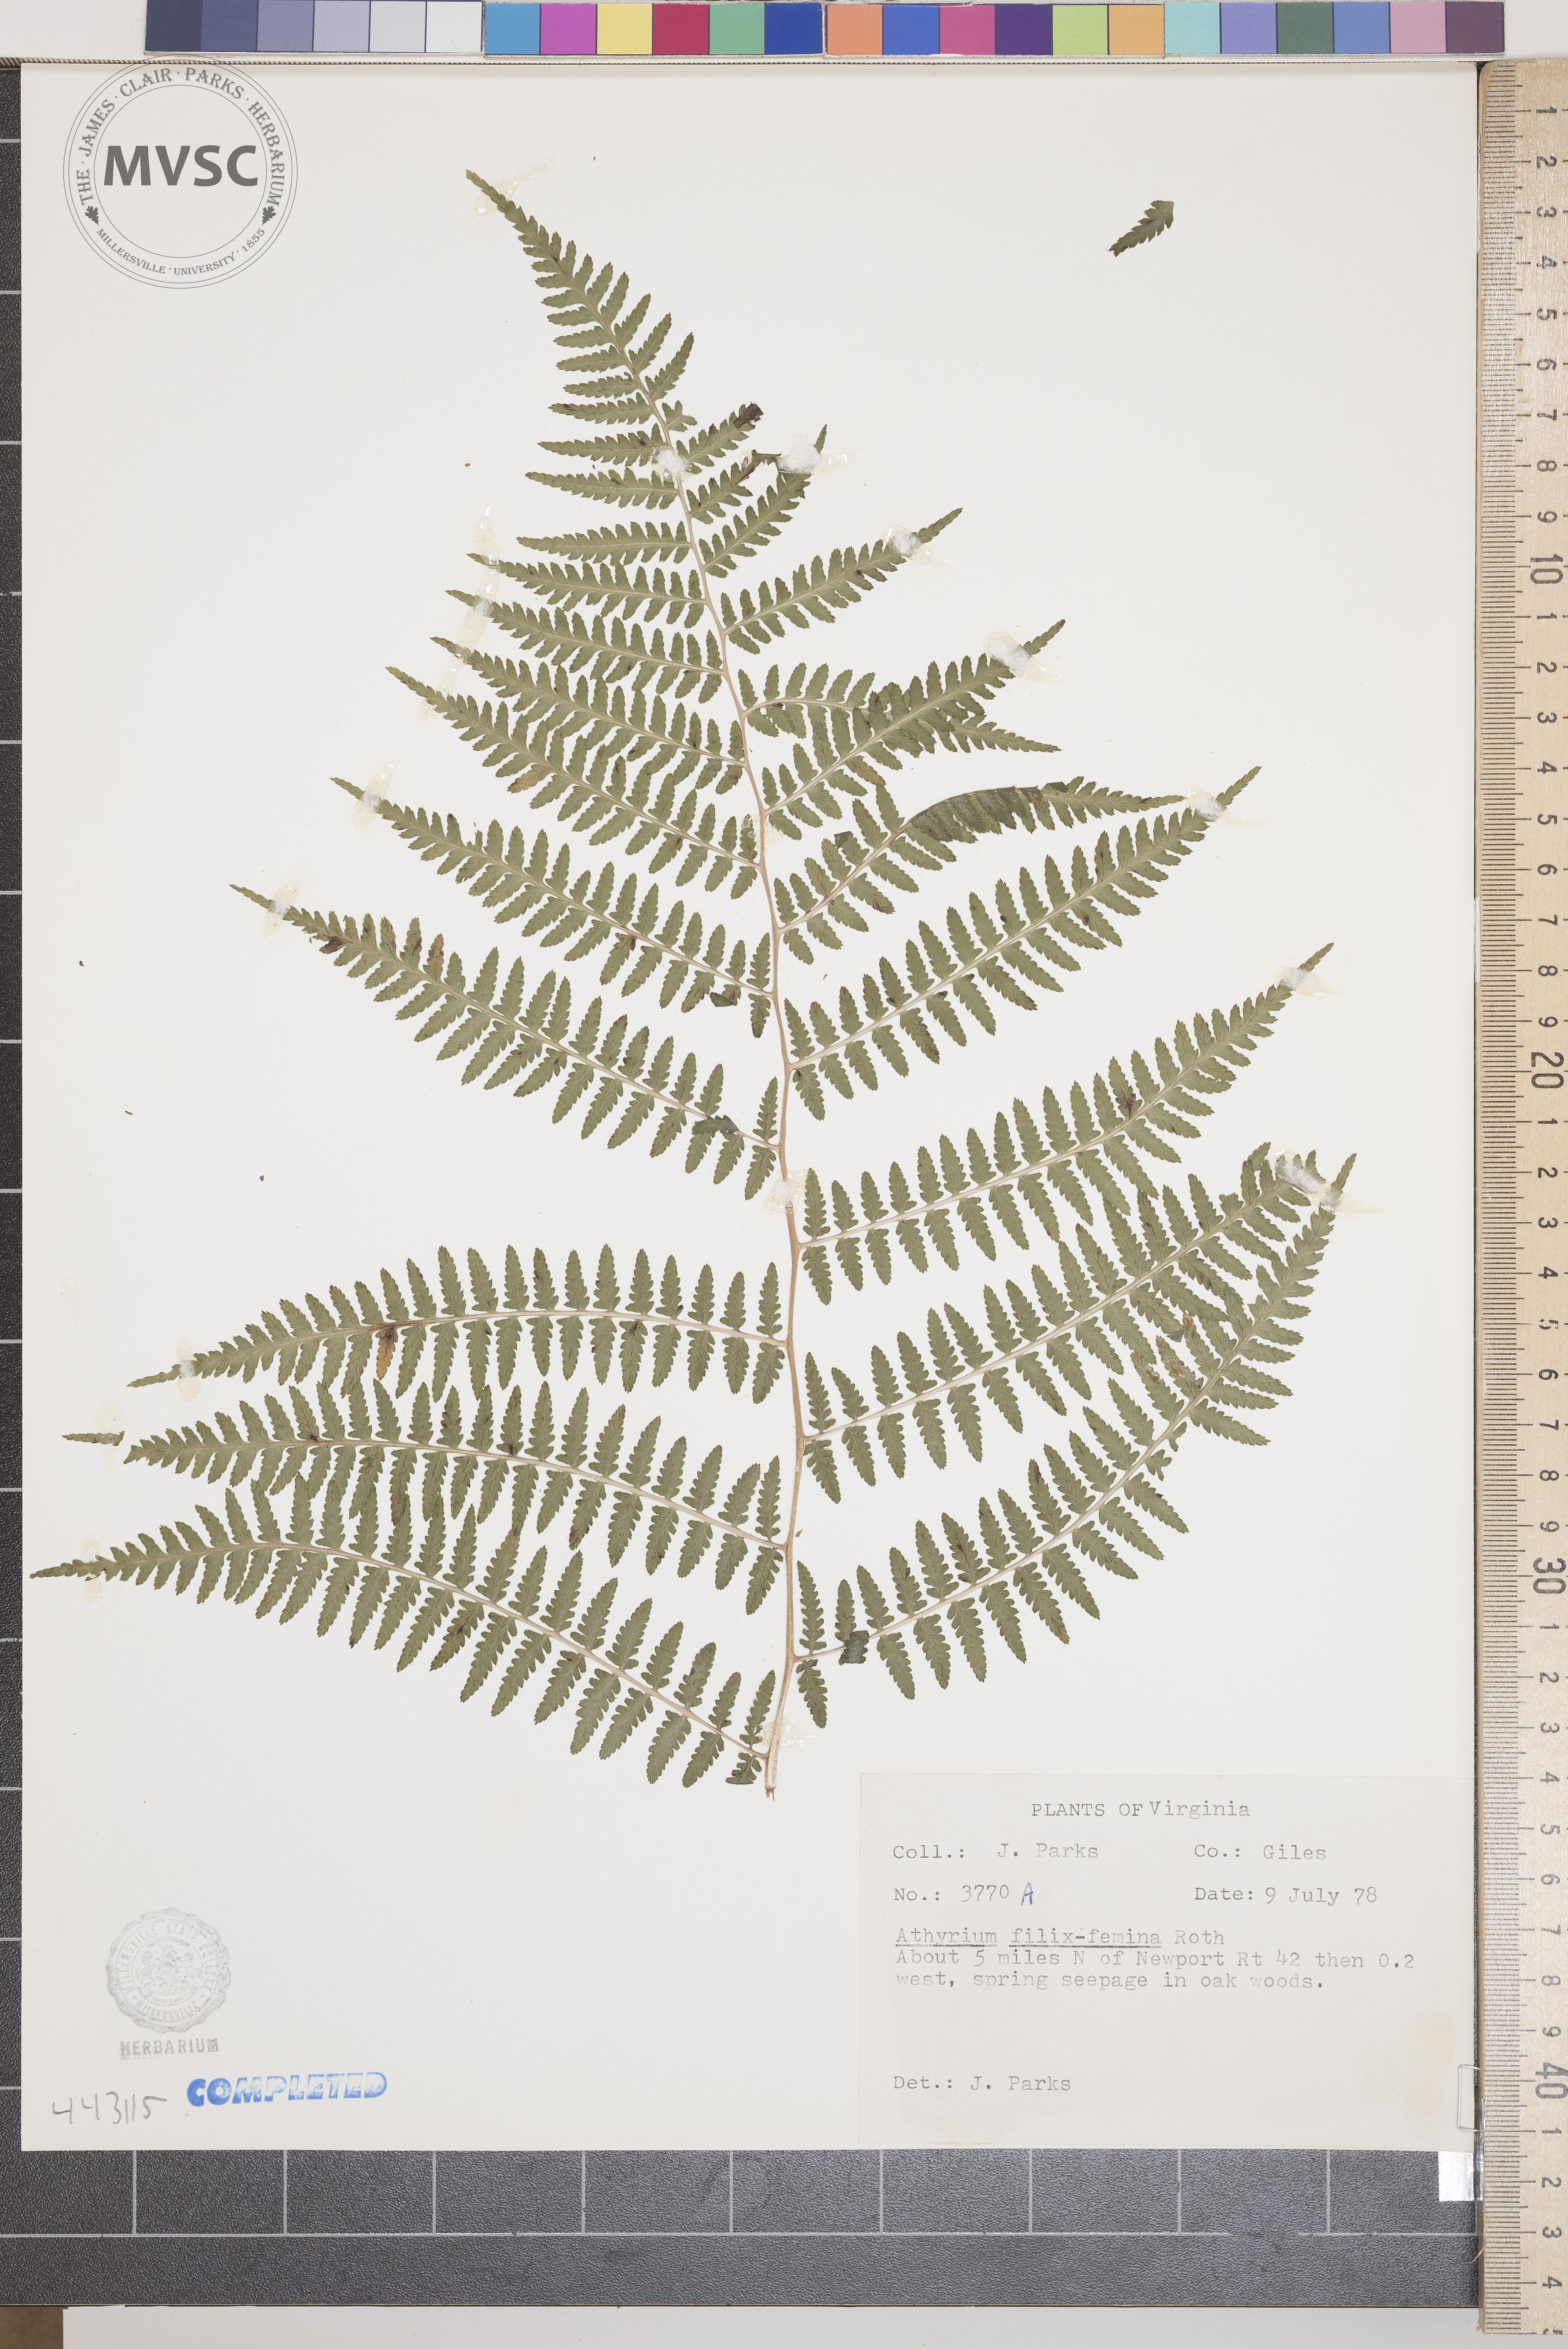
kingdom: Plantae
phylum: Tracheophyta
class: Polypodiopsida
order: Polypodiales
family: Athyriaceae
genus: Athyrium
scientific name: Athyrium filix-femina
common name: Lady fern
